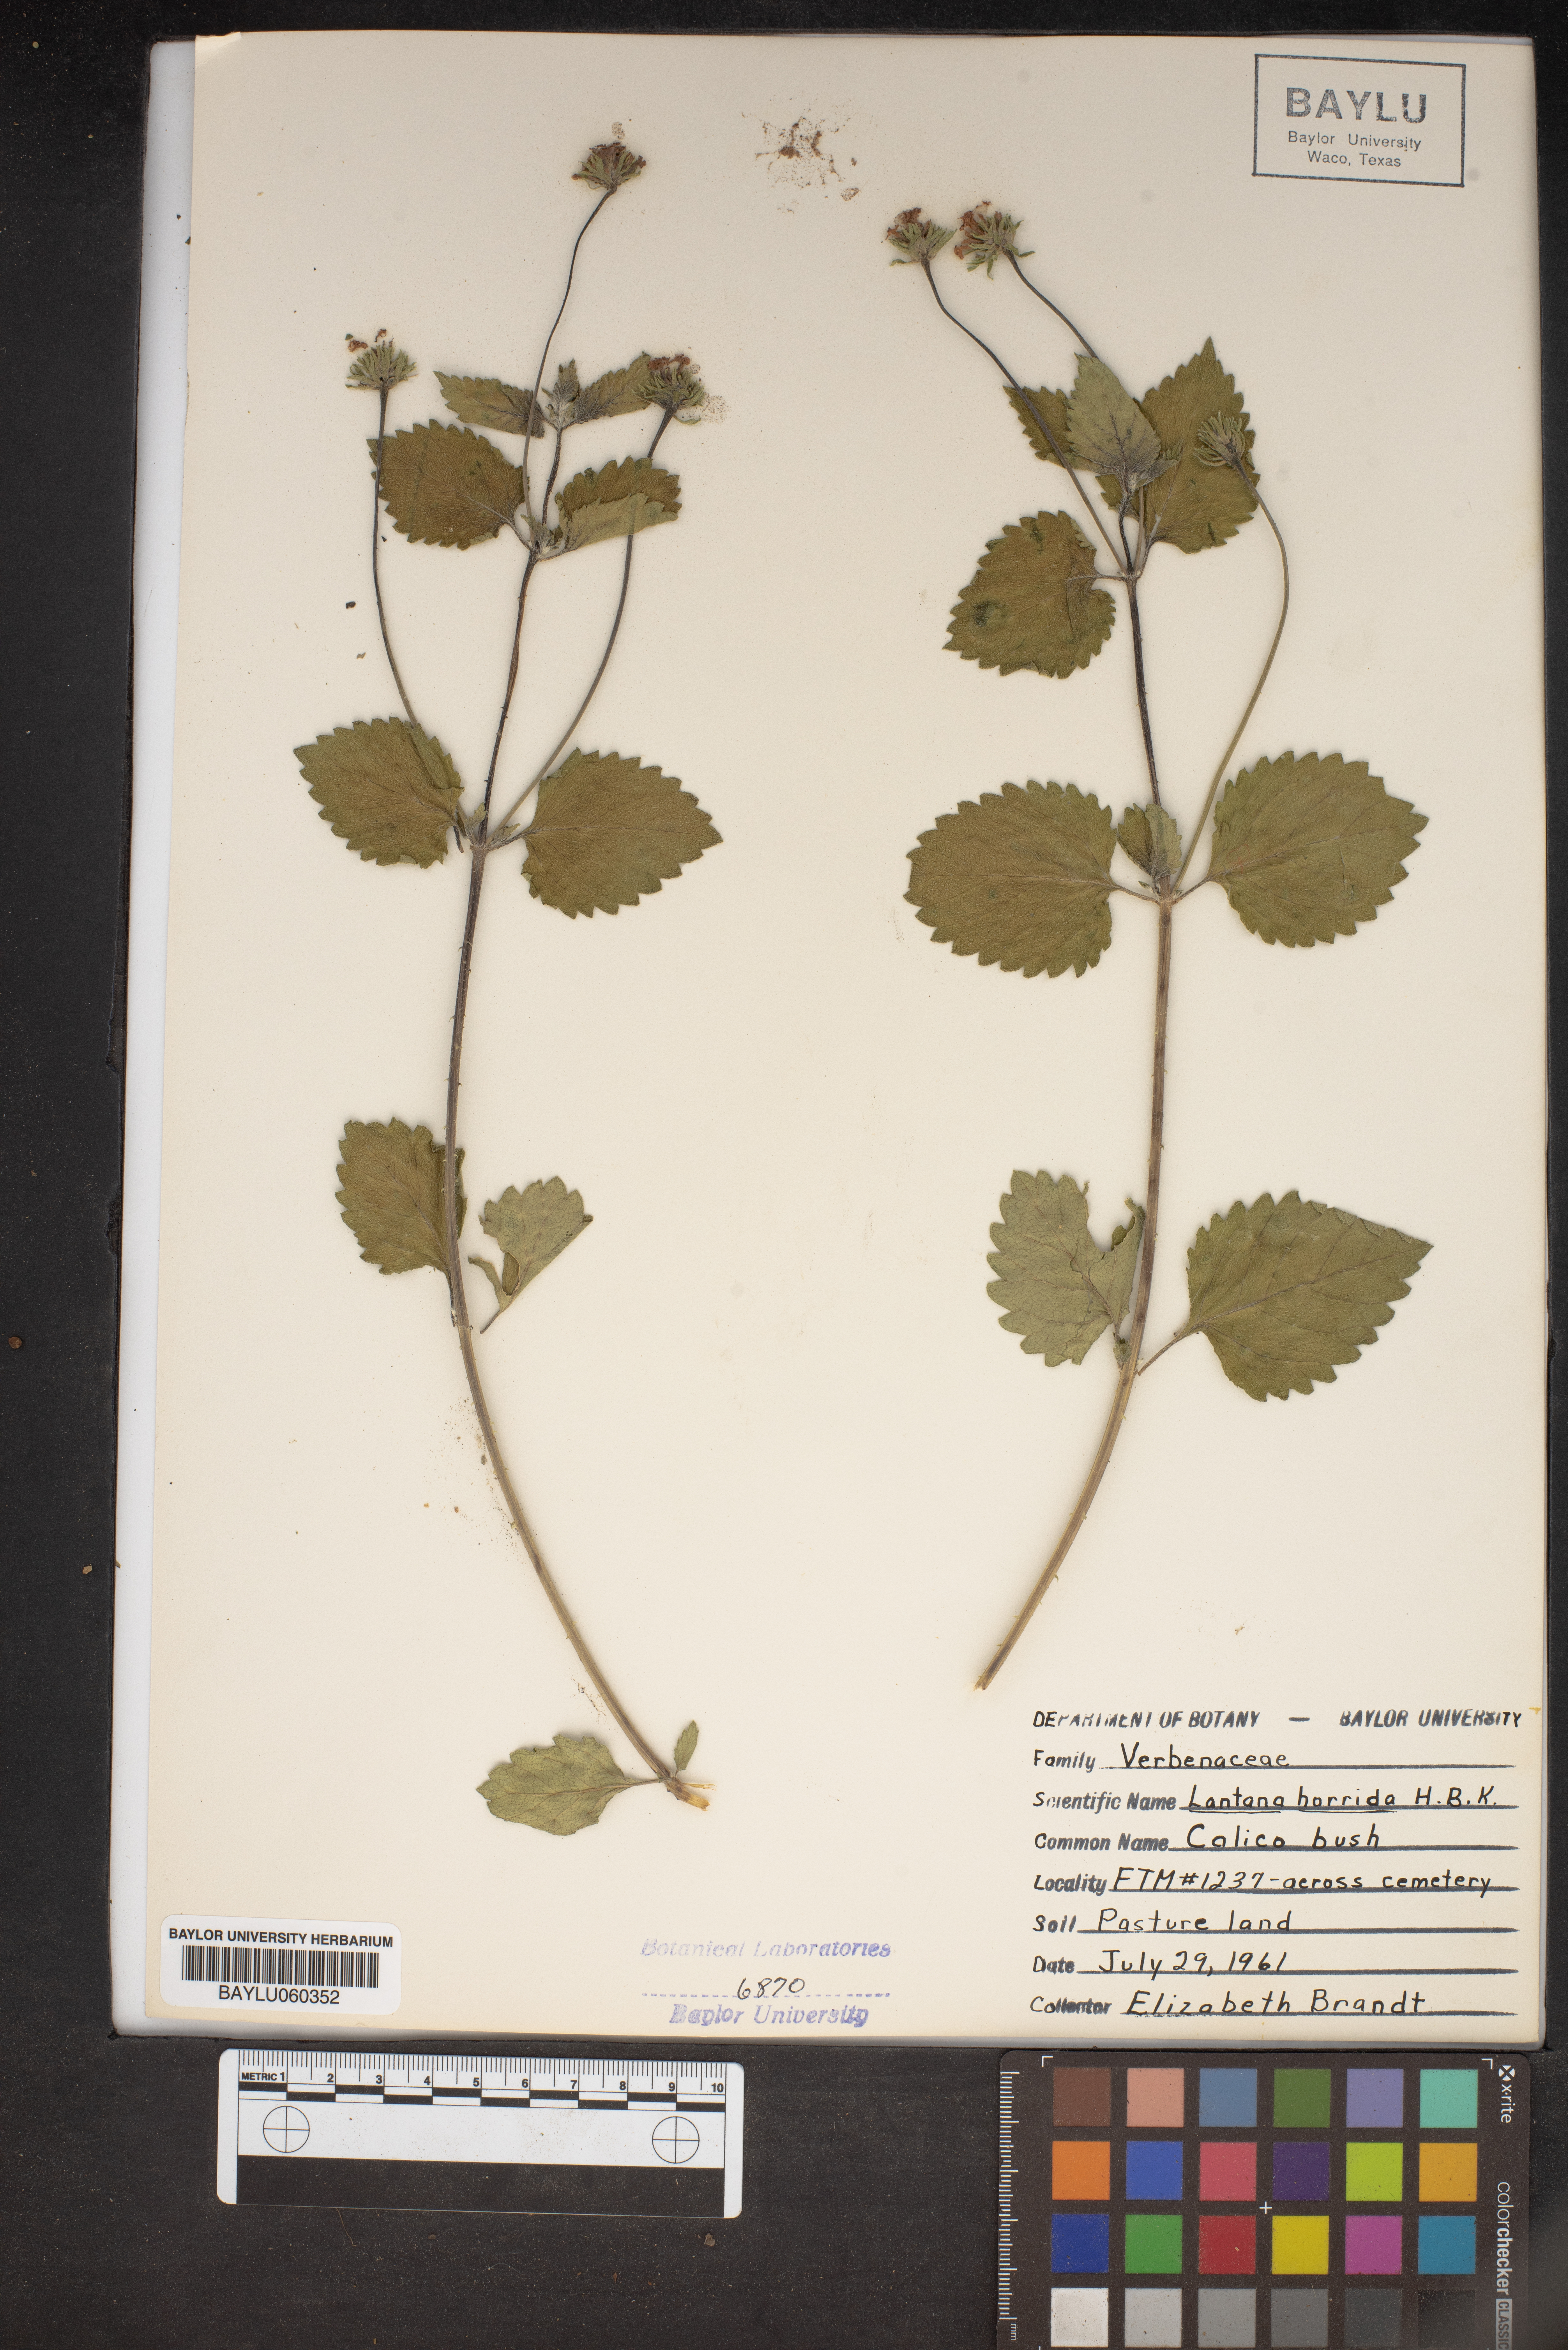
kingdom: Plantae
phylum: Tracheophyta
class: Magnoliopsida
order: Lamiales
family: Verbenaceae
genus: Lantana
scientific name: Lantana horrida
